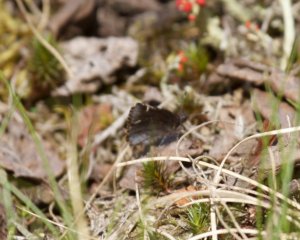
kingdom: Animalia
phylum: Arthropoda
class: Insecta
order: Lepidoptera
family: Hesperiidae
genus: Mastor
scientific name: Mastor vialis
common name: Common Roadside-Skipper
